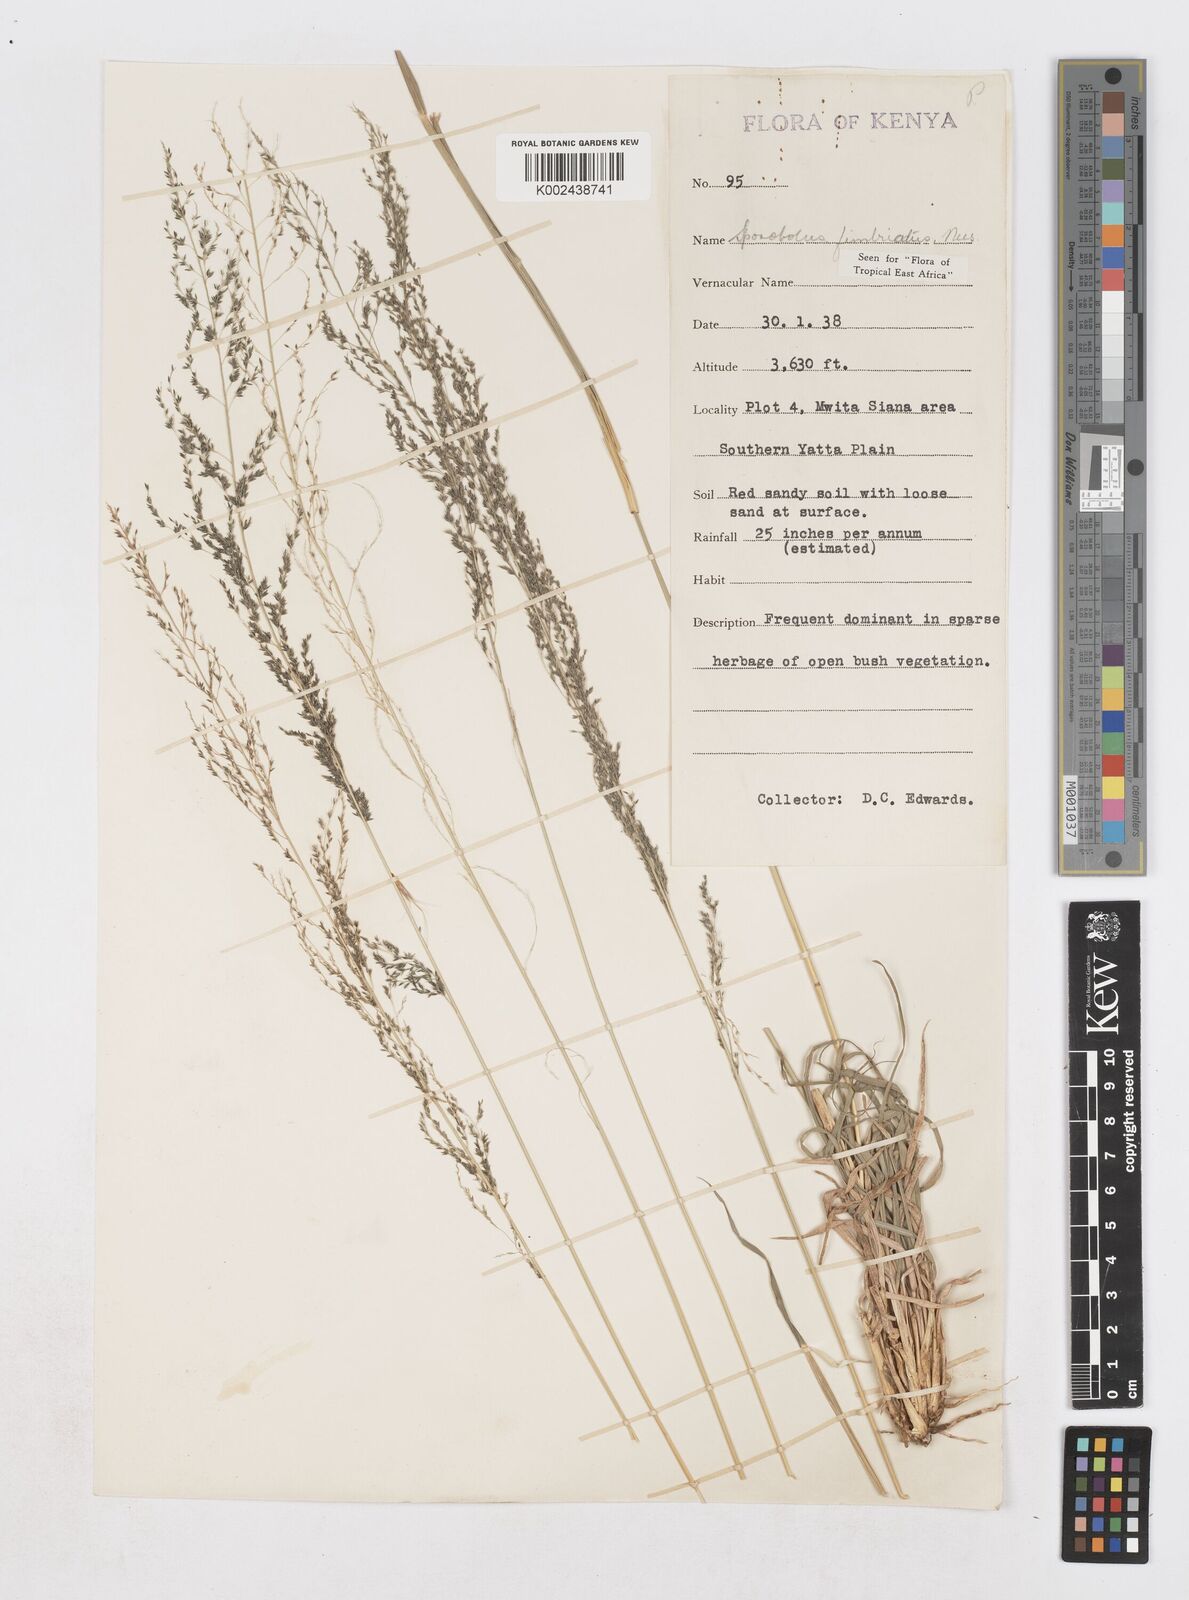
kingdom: Plantae
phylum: Tracheophyta
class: Liliopsida
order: Poales
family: Poaceae
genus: Sporobolus
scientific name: Sporobolus fimbriatus
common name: Fringed dropseed
